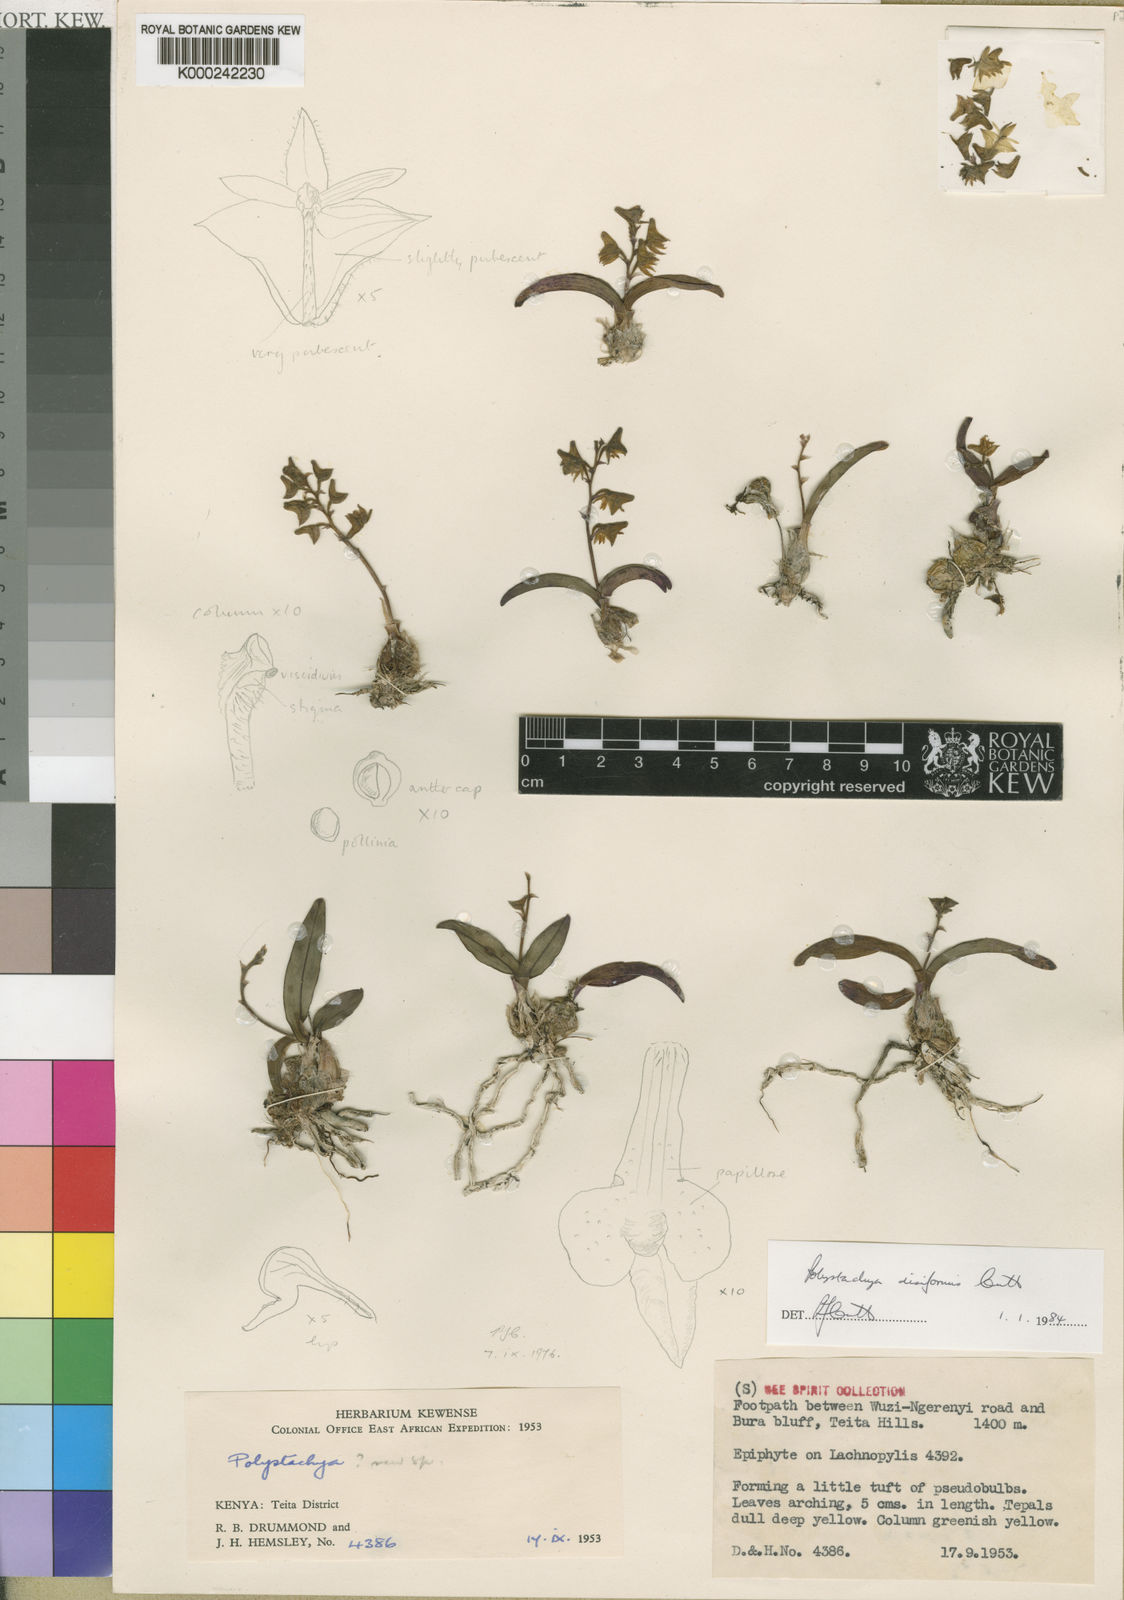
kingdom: Plantae
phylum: Tracheophyta
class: Liliopsida
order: Asparagales
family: Orchidaceae
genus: Polystachya
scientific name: Polystachya disiformis
